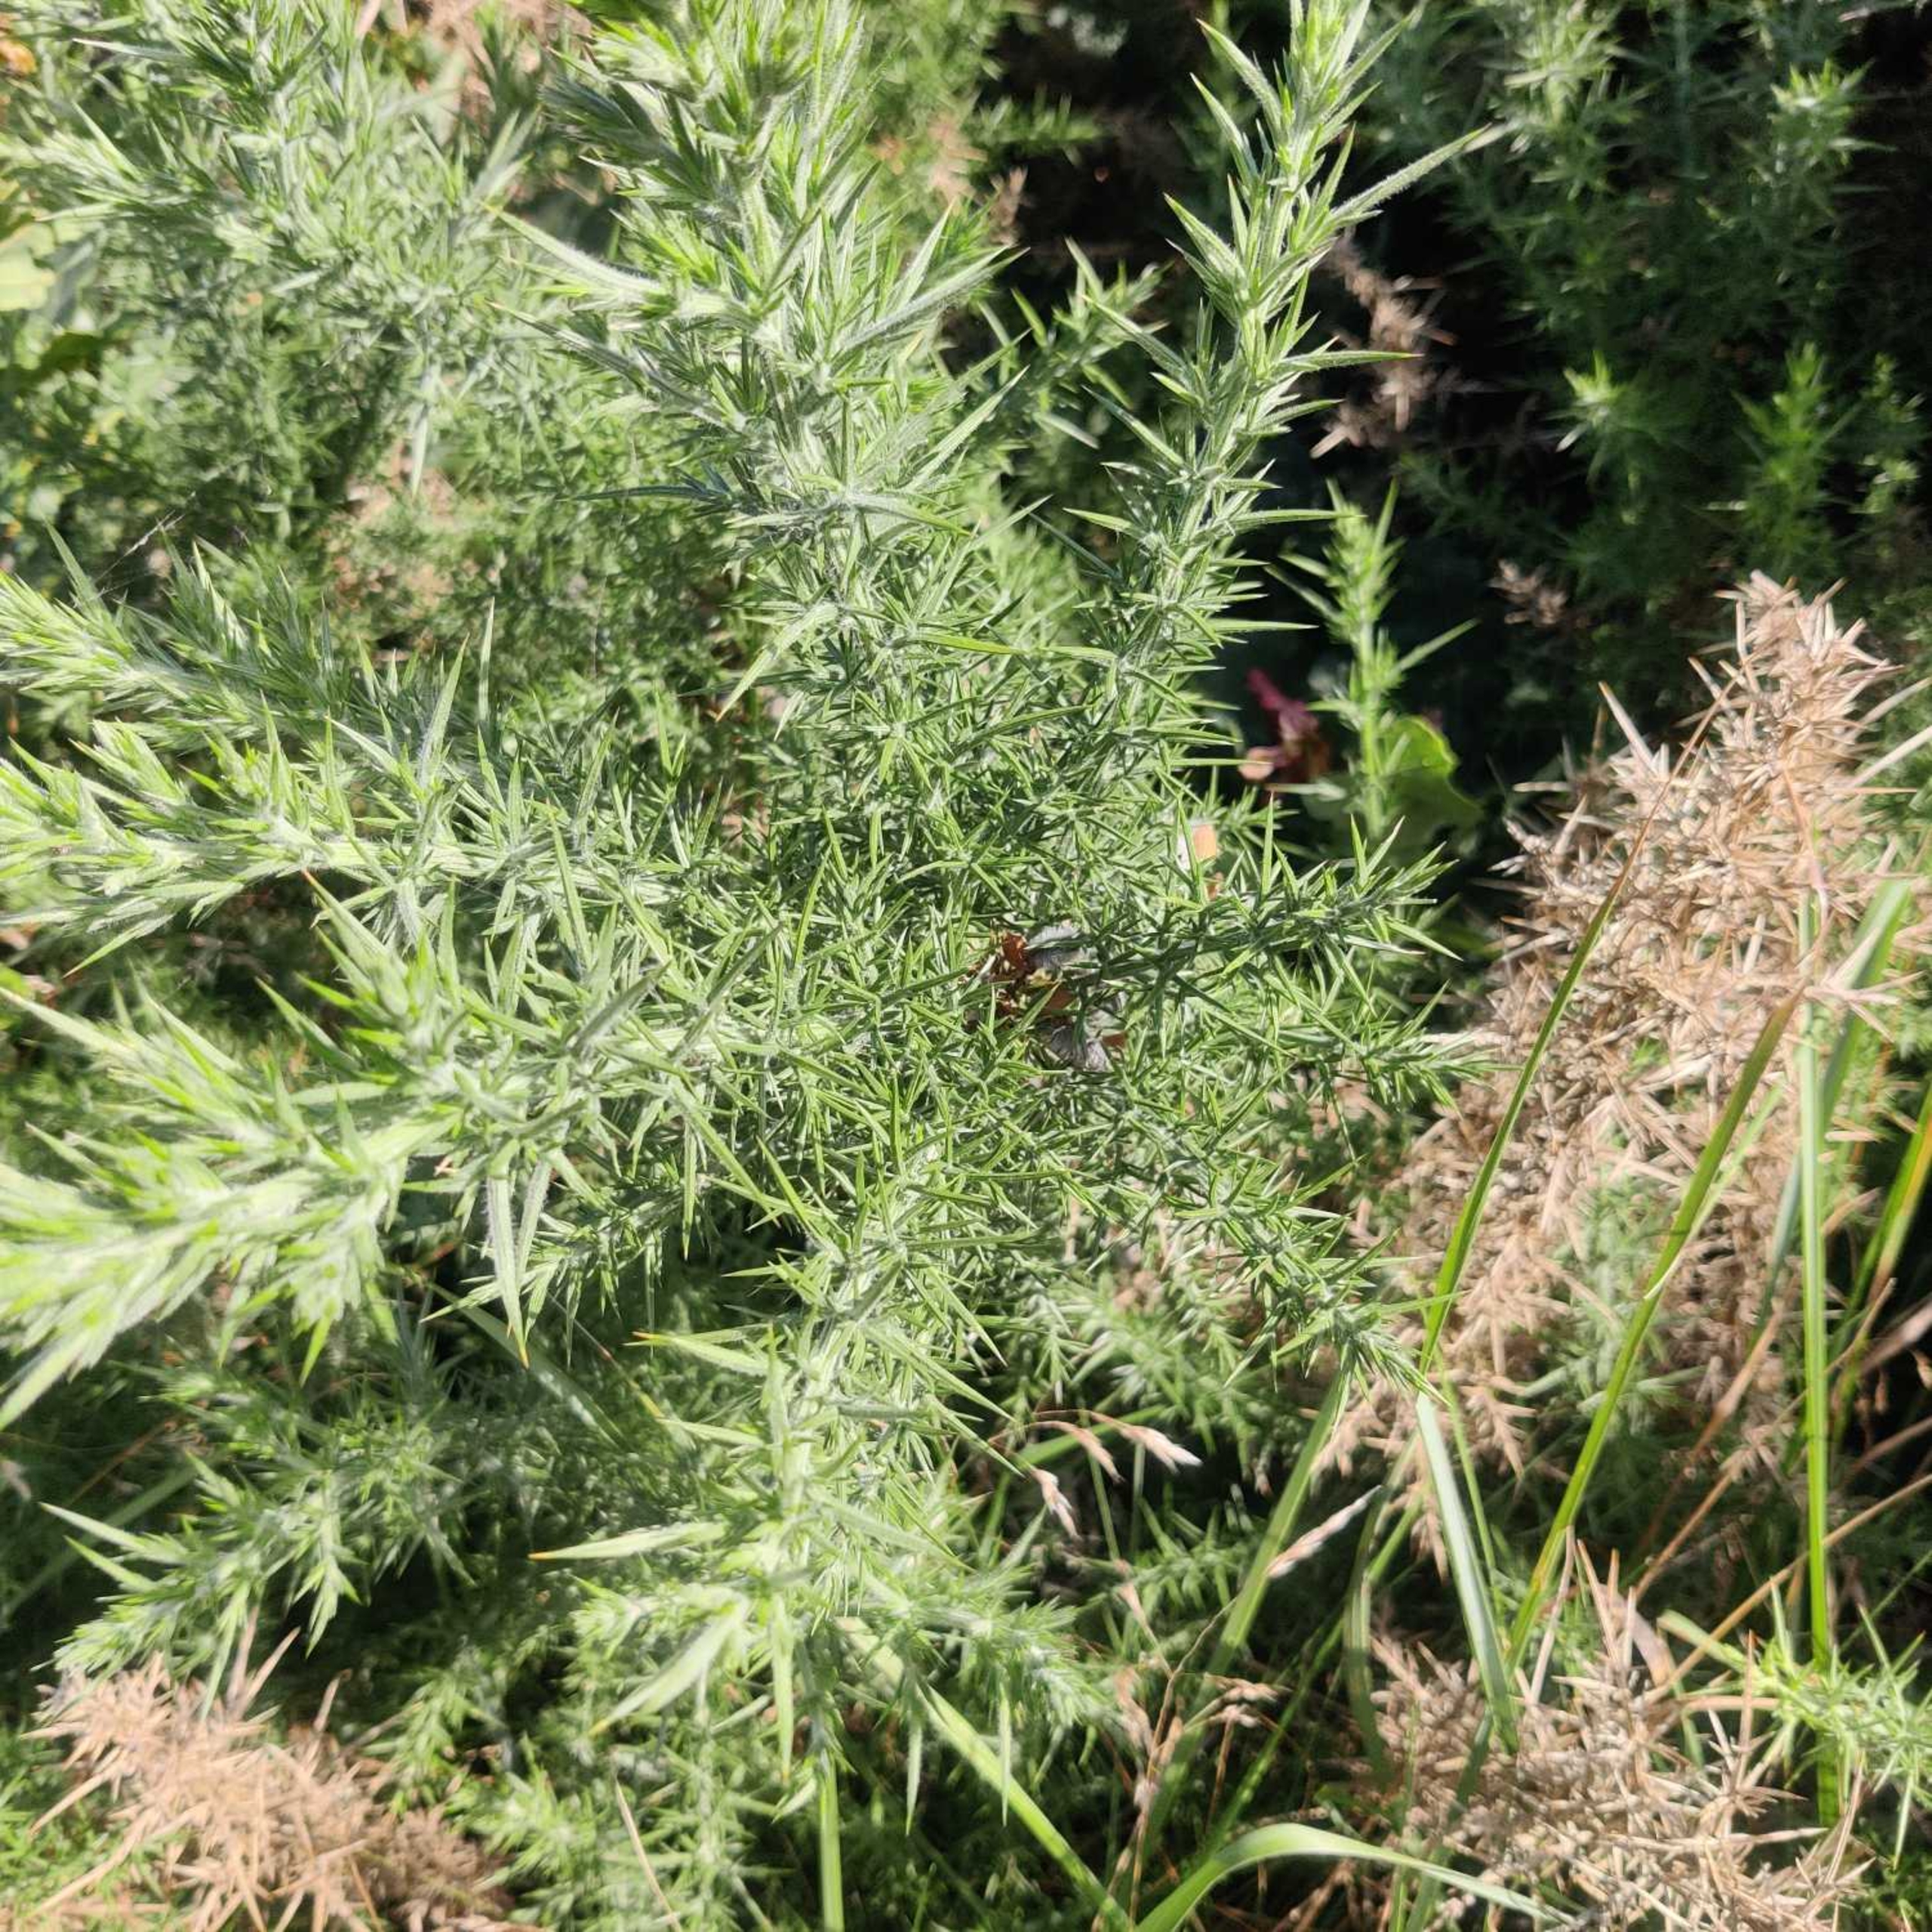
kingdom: Plantae
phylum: Tracheophyta
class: Magnoliopsida
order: Fabales
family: Fabaceae
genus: Ulex
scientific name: Ulex europaeus
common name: Tornblad
